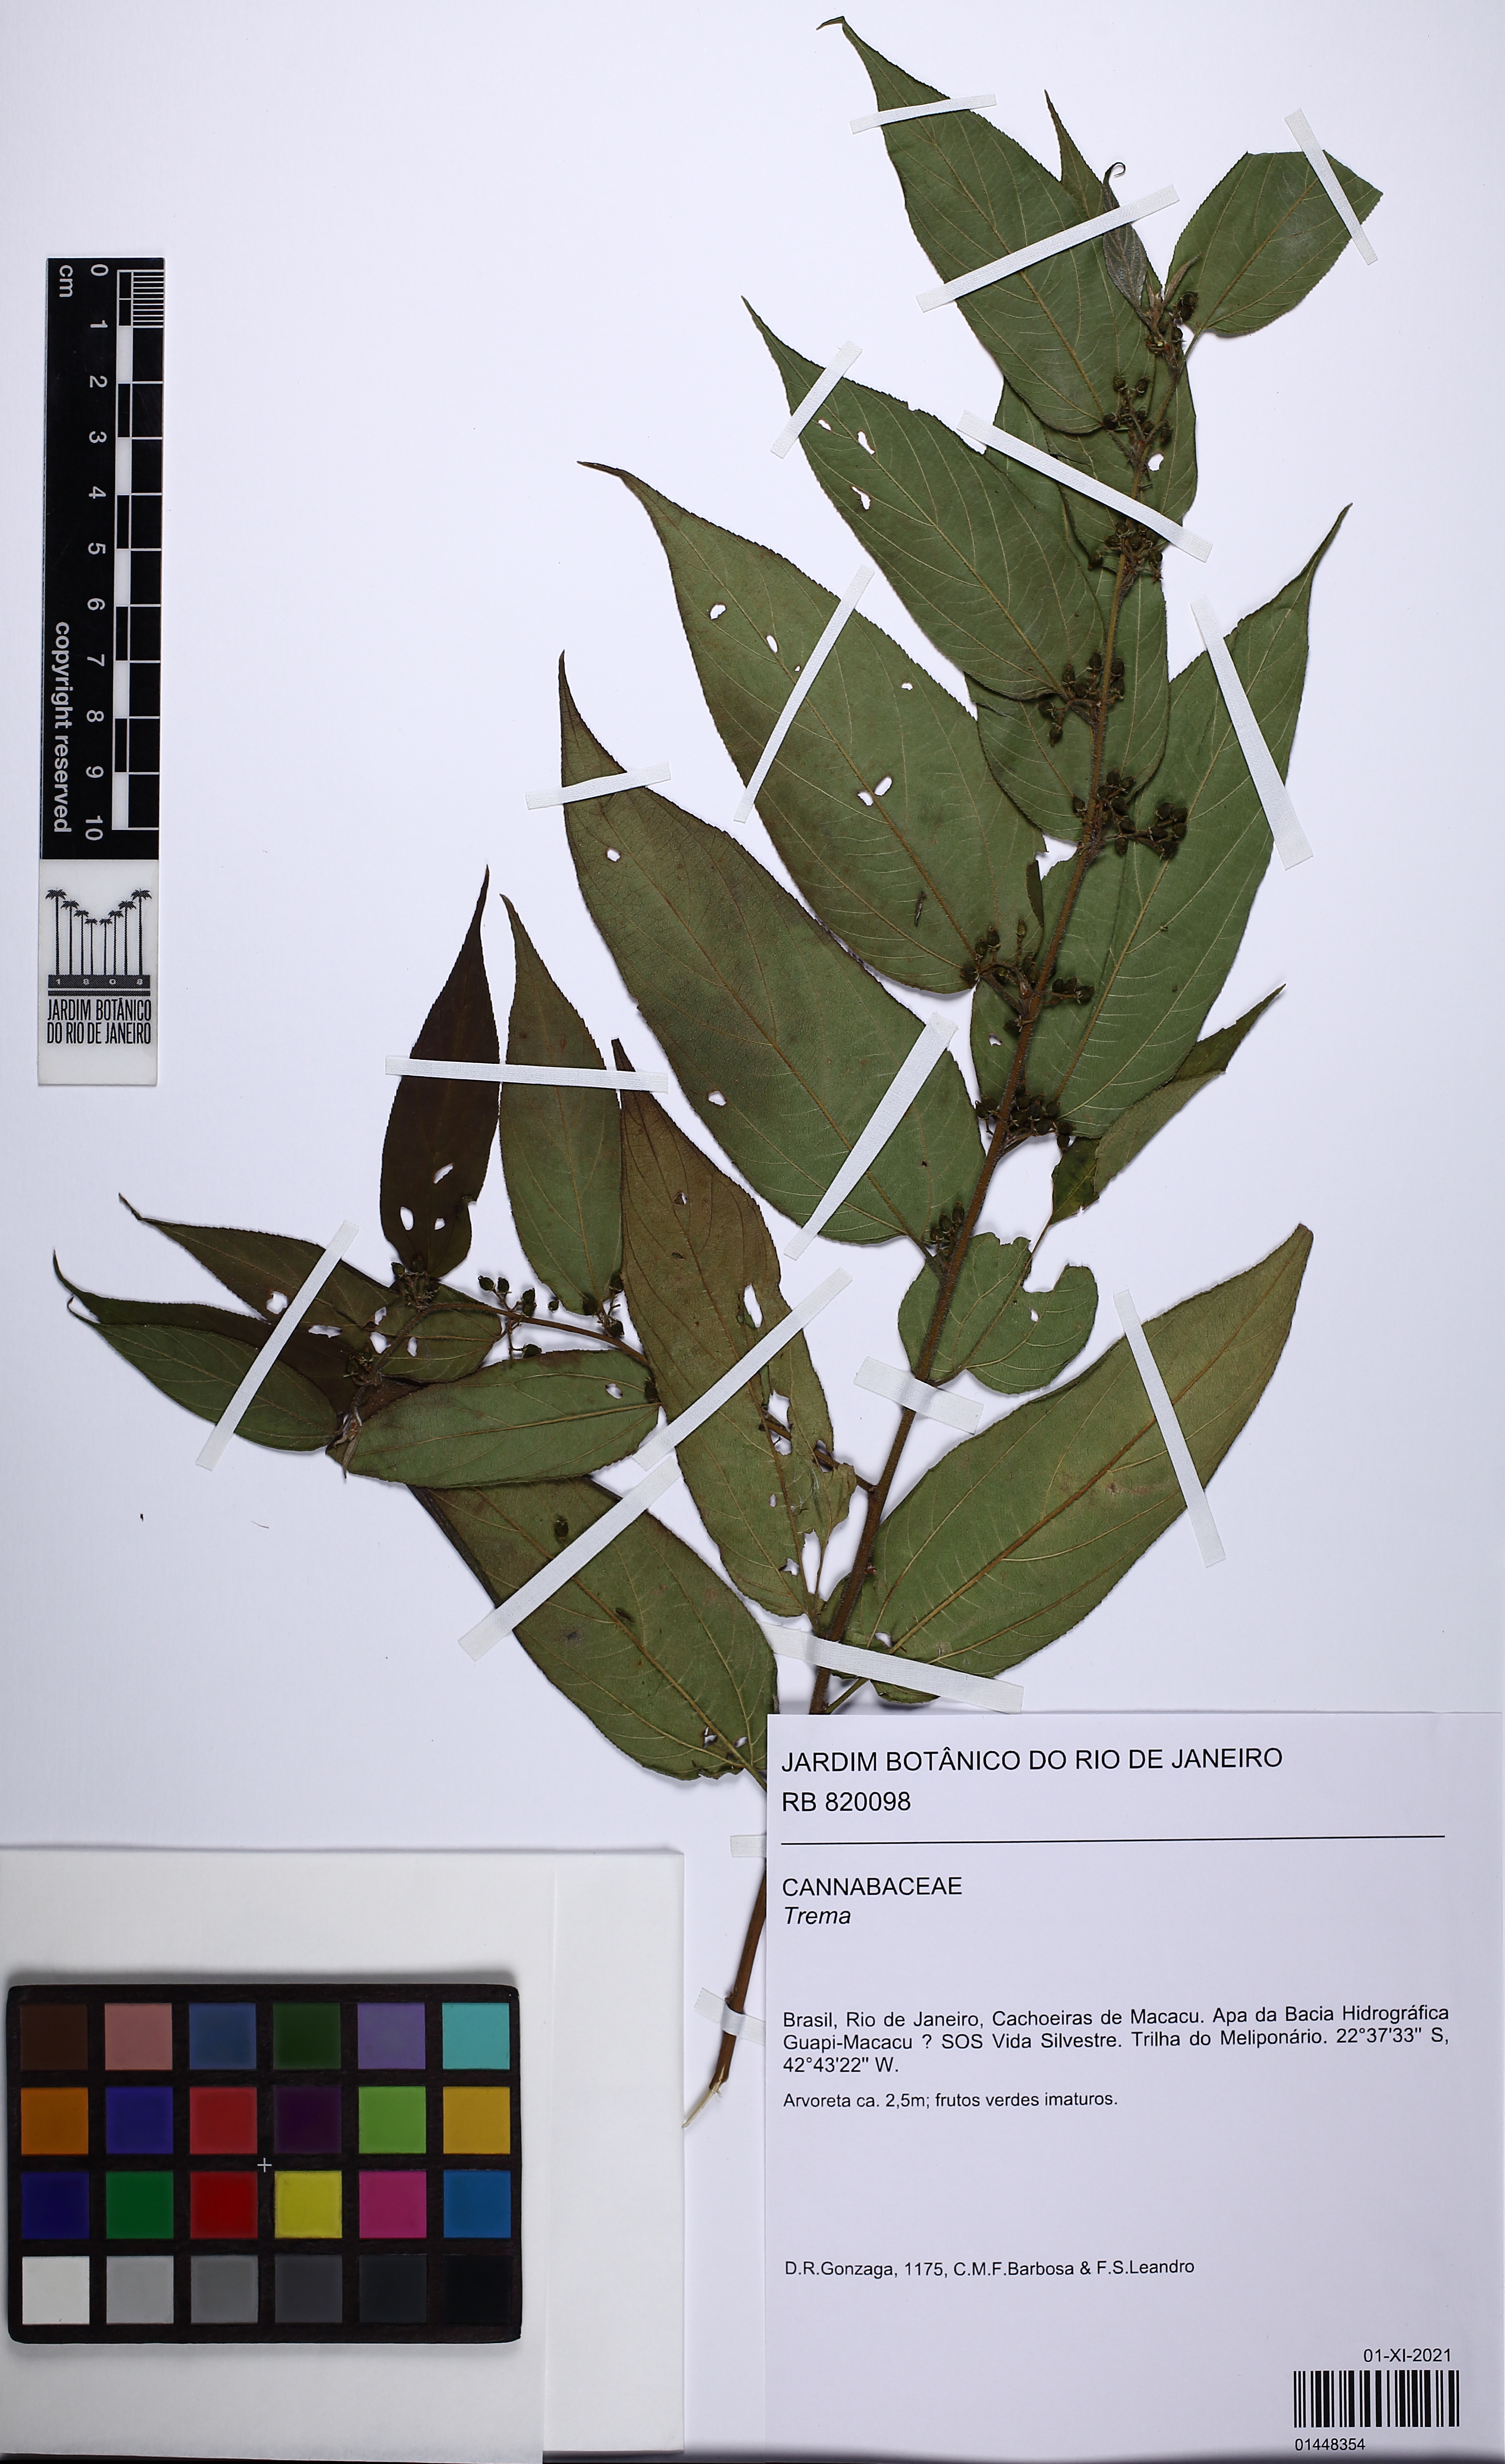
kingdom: Plantae
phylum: Tracheophyta
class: Magnoliopsida
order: Rosales
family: Cannabaceae
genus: Trema
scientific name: Trema
